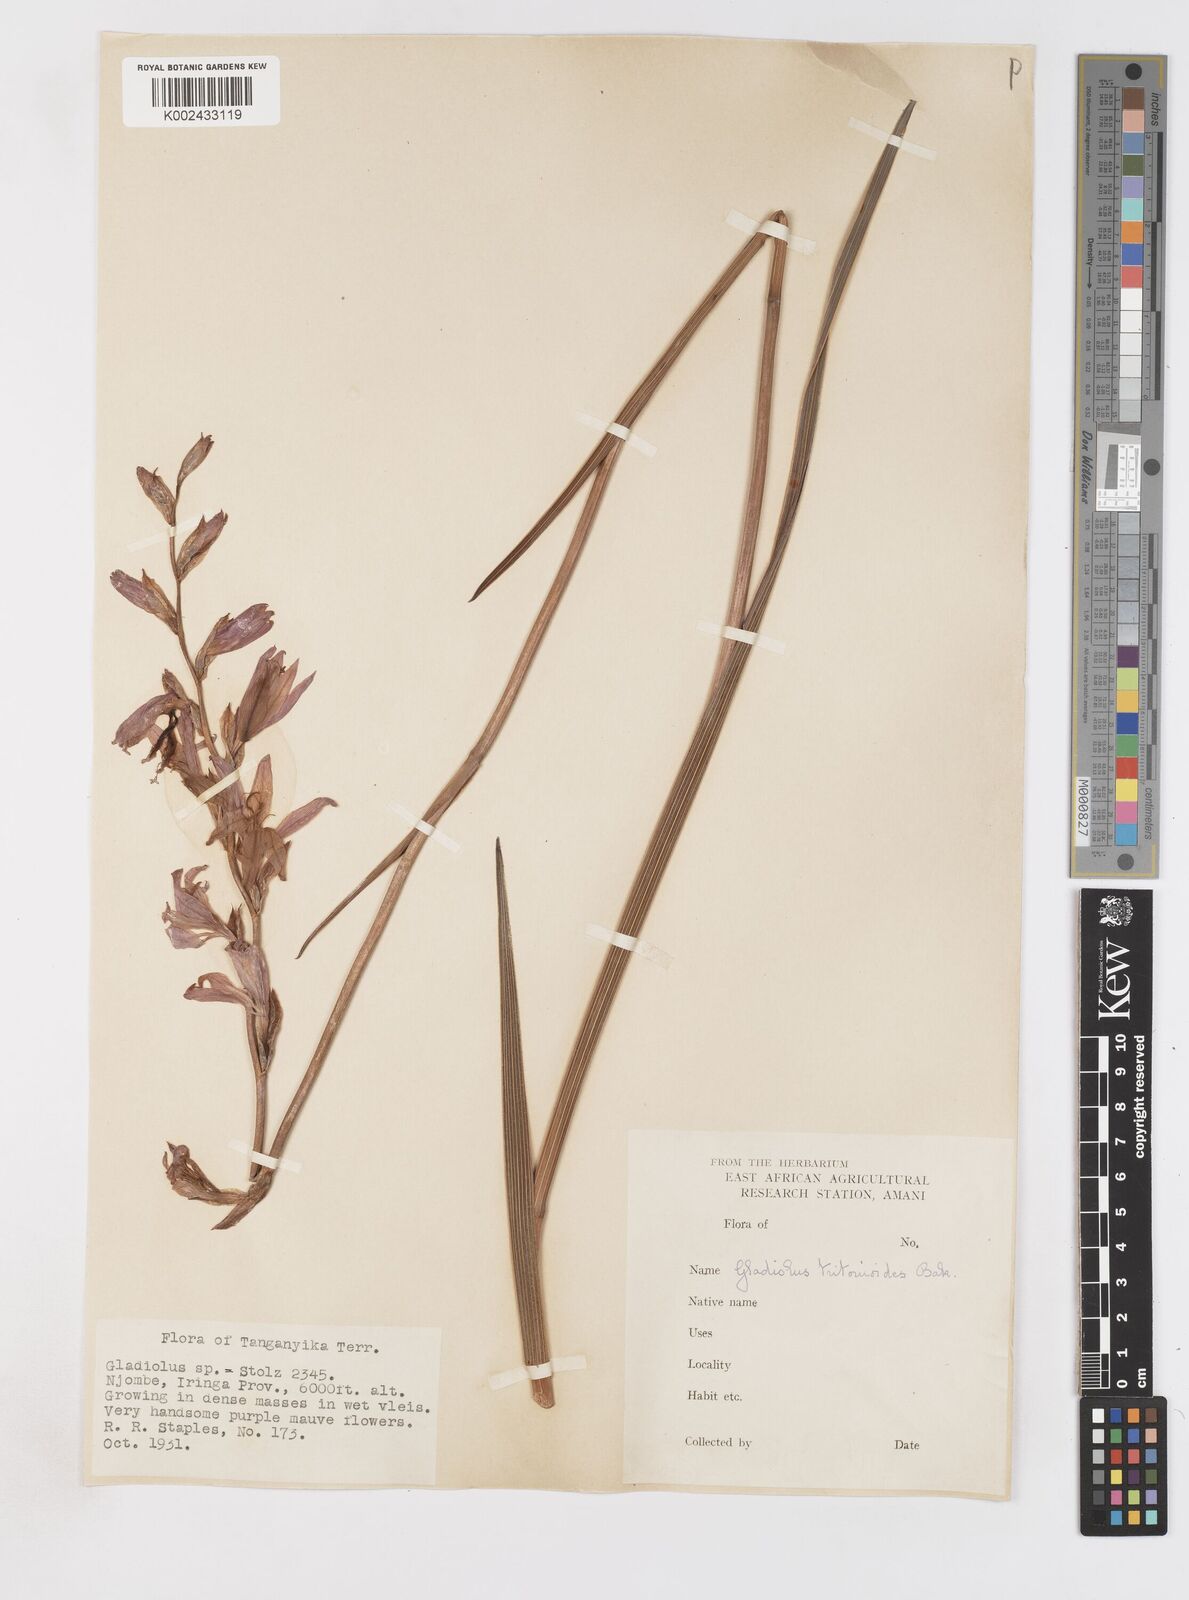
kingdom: Plantae
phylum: Tracheophyta
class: Liliopsida
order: Asparagales
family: Iridaceae
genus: Gladiolus
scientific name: Gladiolus laxiflorus
